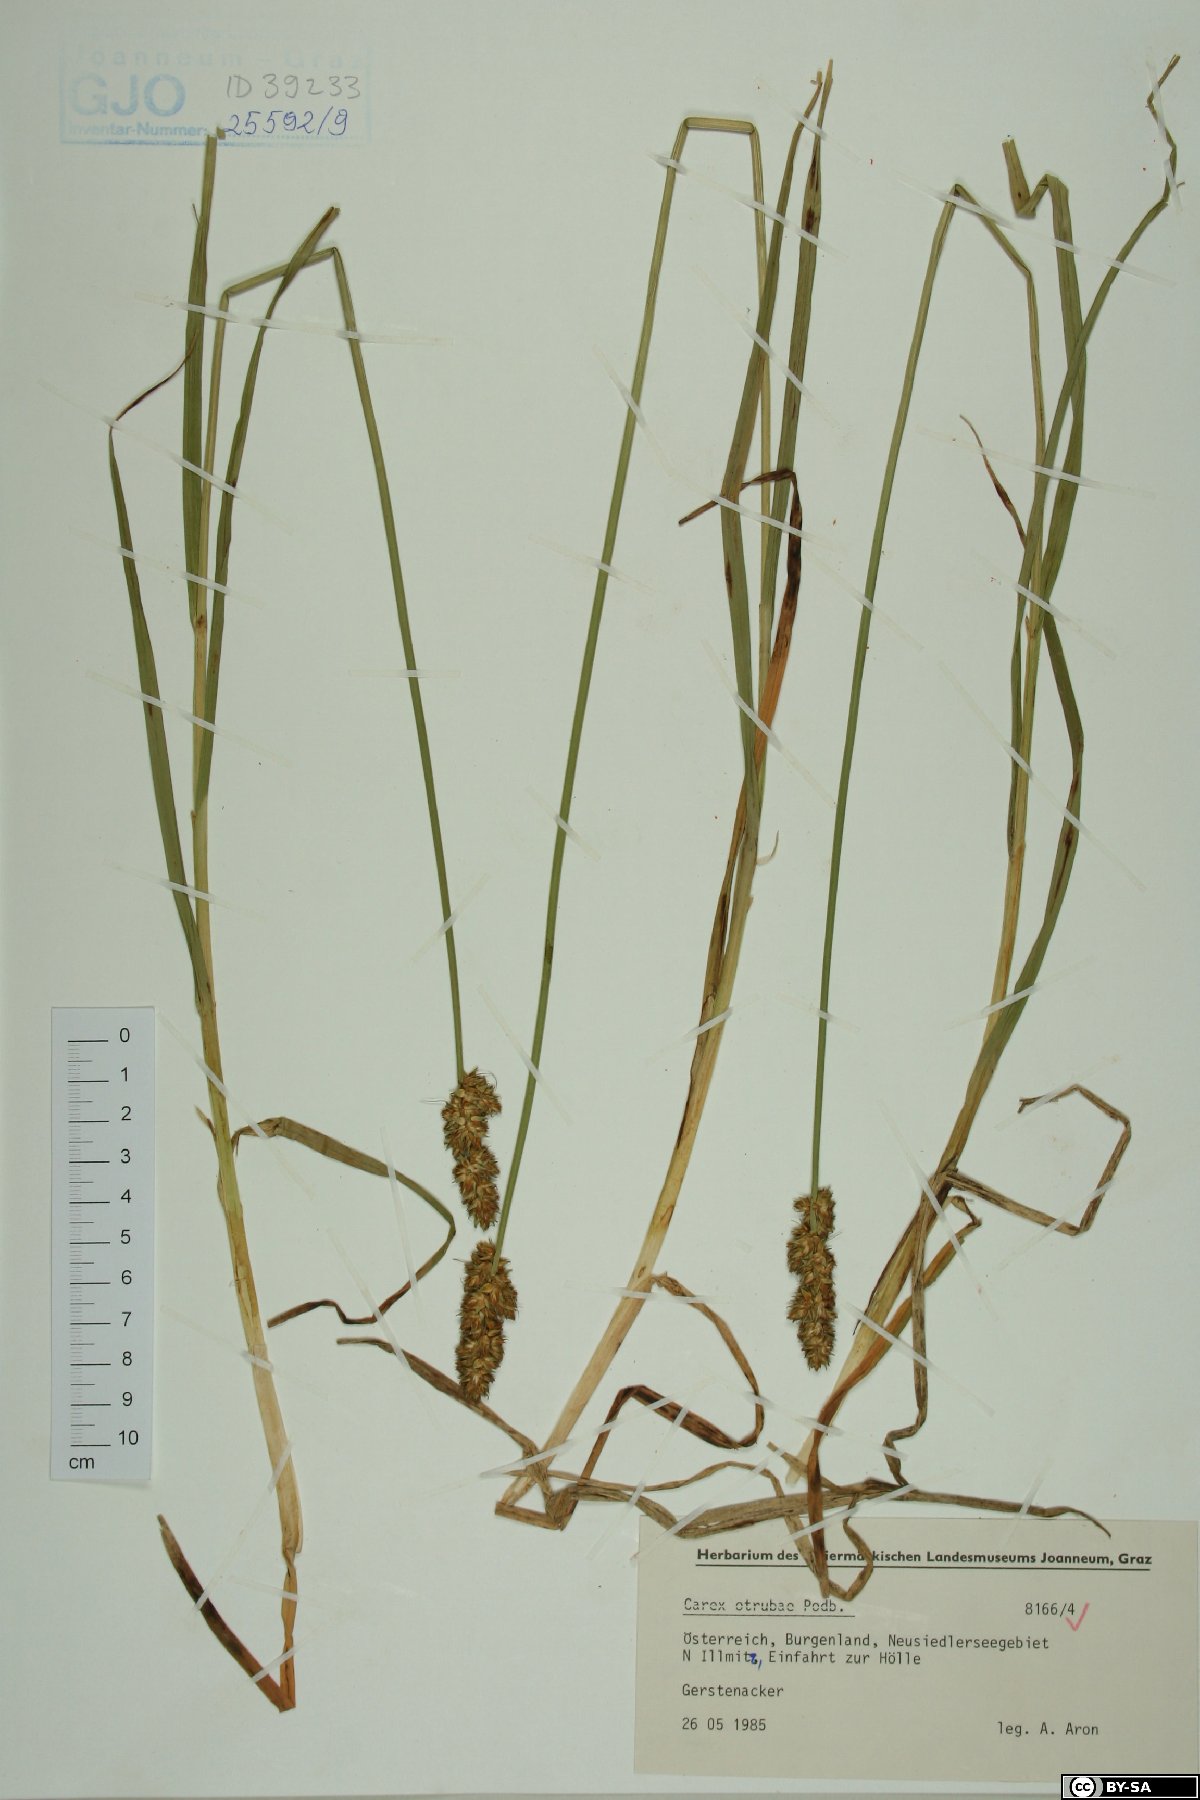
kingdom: Plantae
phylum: Tracheophyta
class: Liliopsida
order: Poales
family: Cyperaceae
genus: Carex
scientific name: Carex otrubae
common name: False fox-sedge
